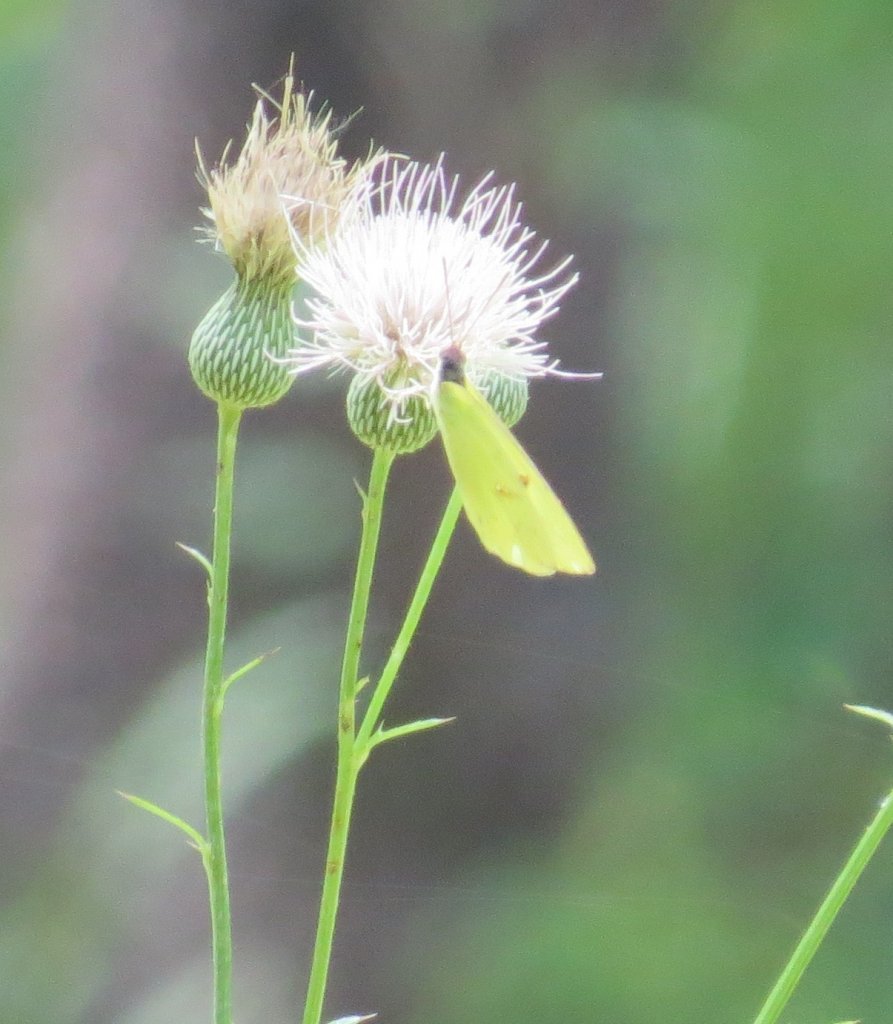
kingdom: Animalia
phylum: Arthropoda
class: Insecta
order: Lepidoptera
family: Pieridae
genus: Phoebis
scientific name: Phoebis sennae
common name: Cloudless Sulphur
